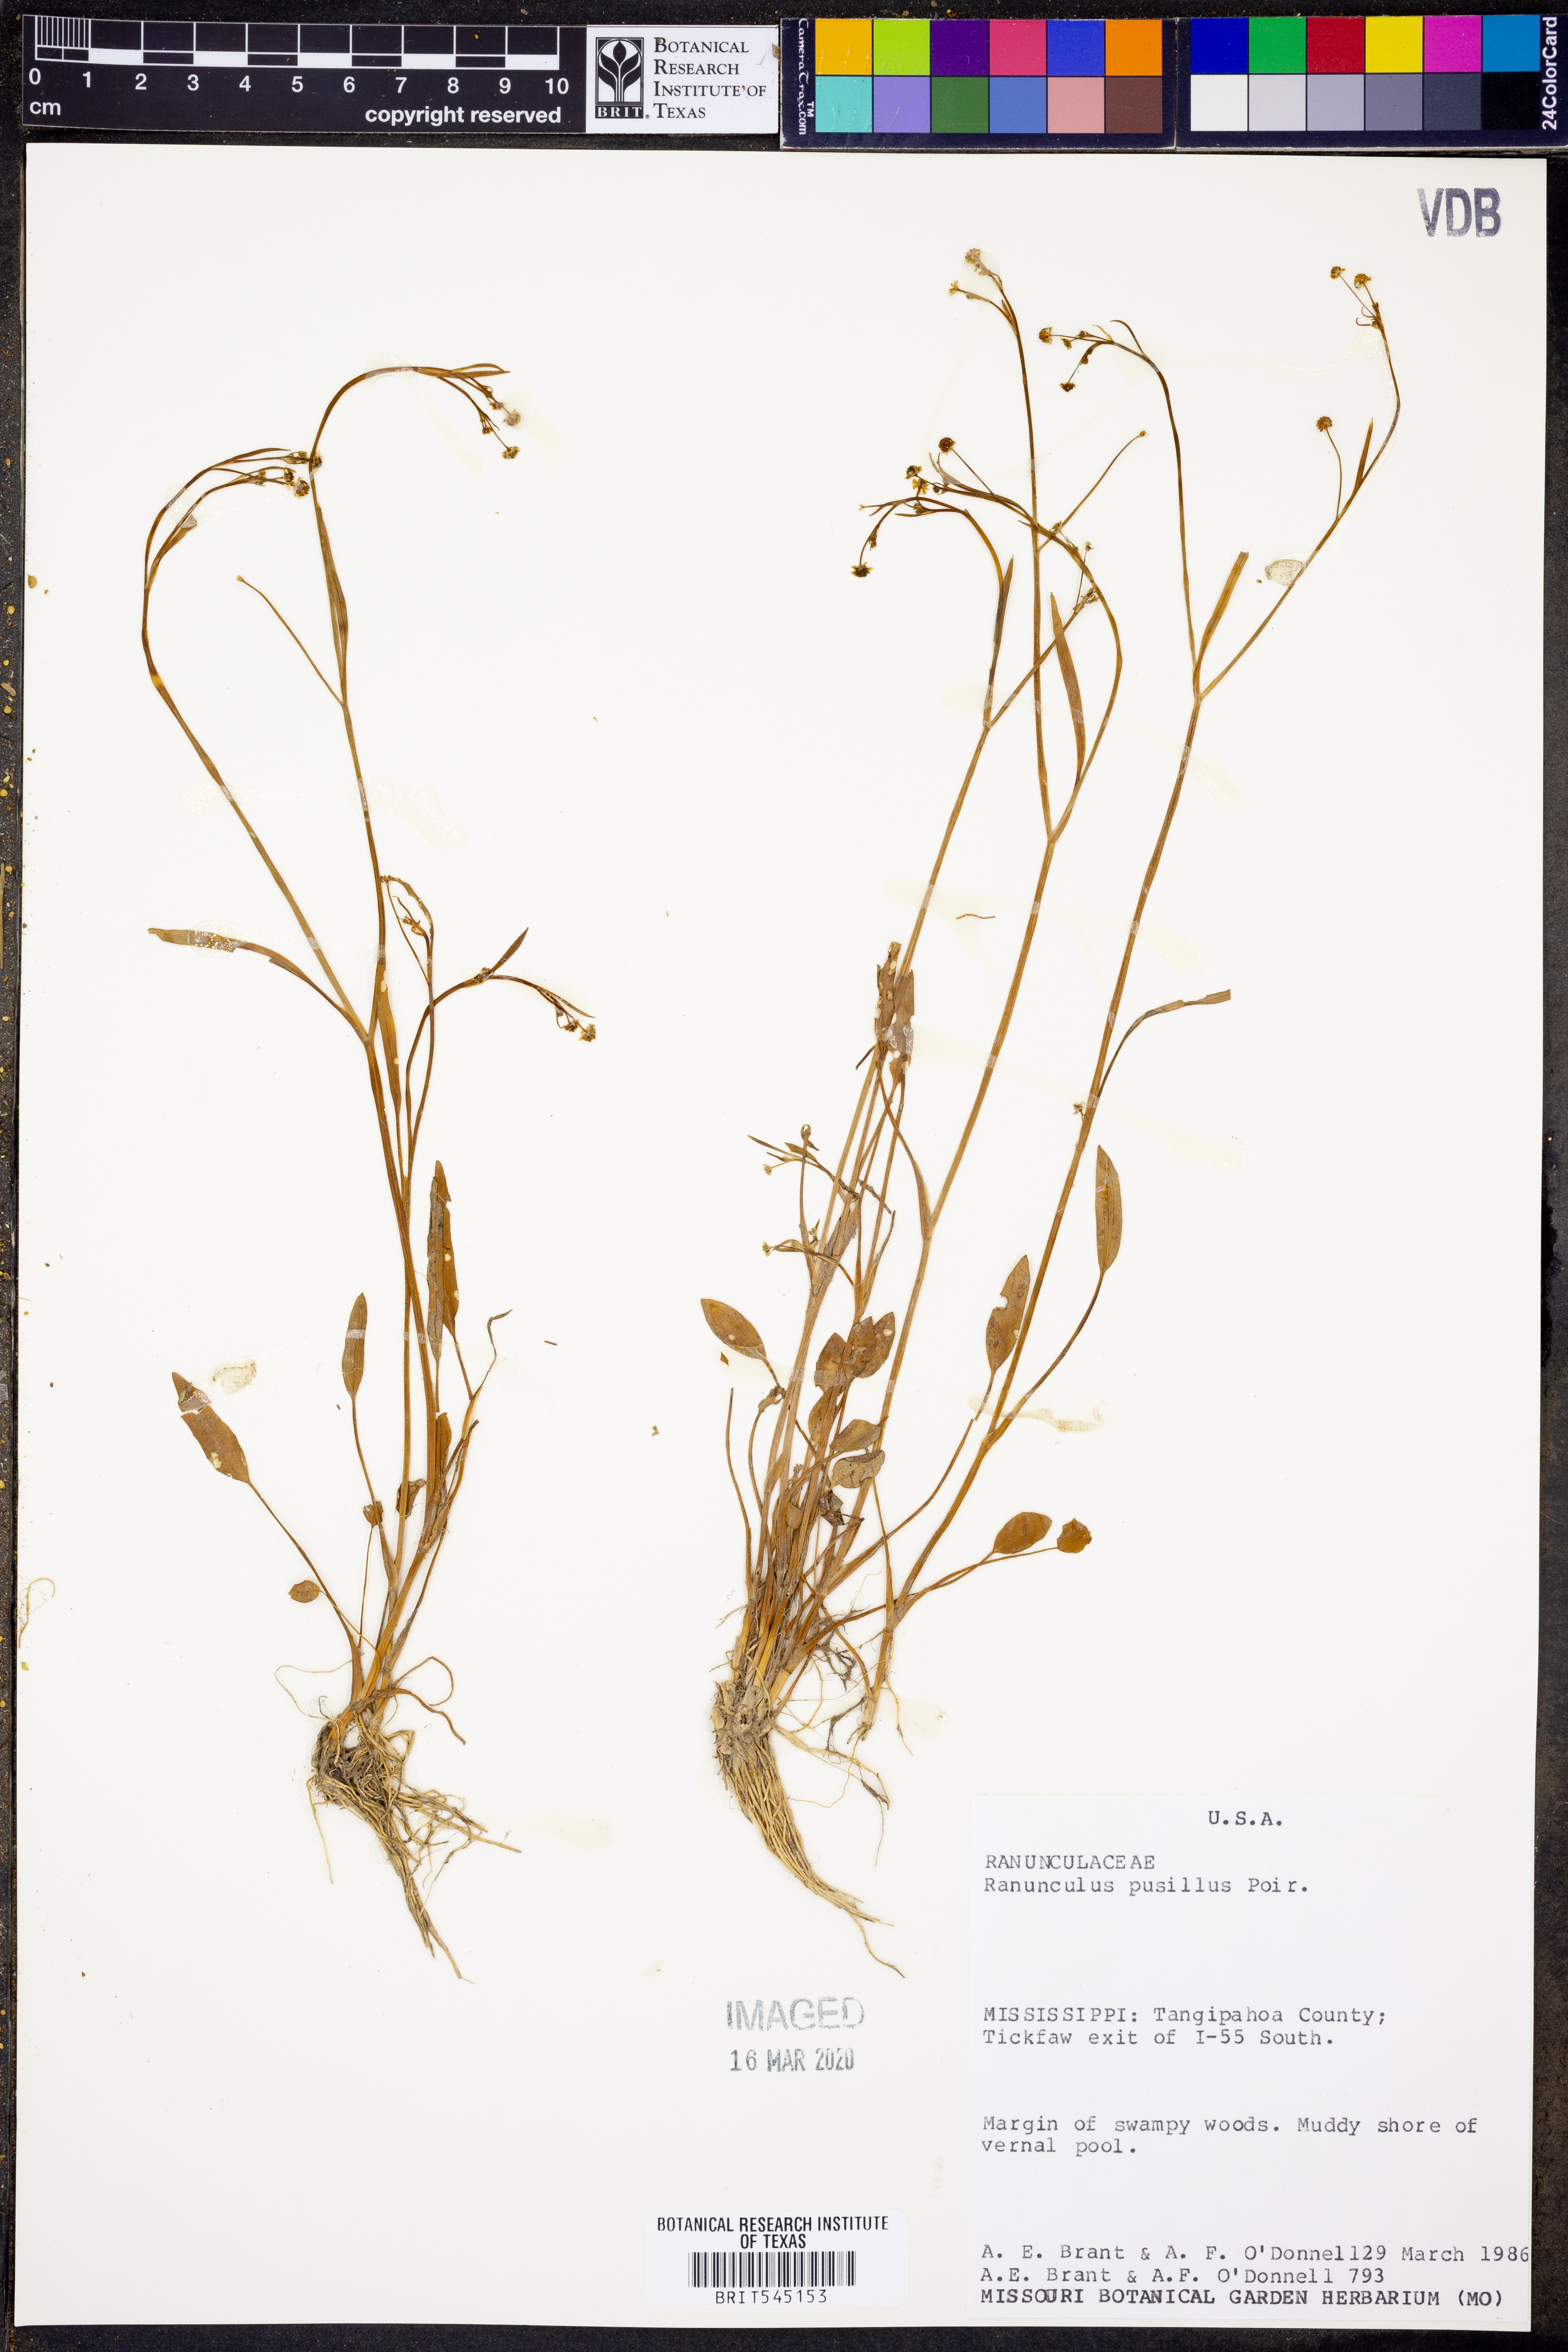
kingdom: Plantae
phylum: Tracheophyta
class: Magnoliopsida
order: Ranunculales
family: Ranunculaceae
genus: Ranunculus
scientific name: Ranunculus pusillus
